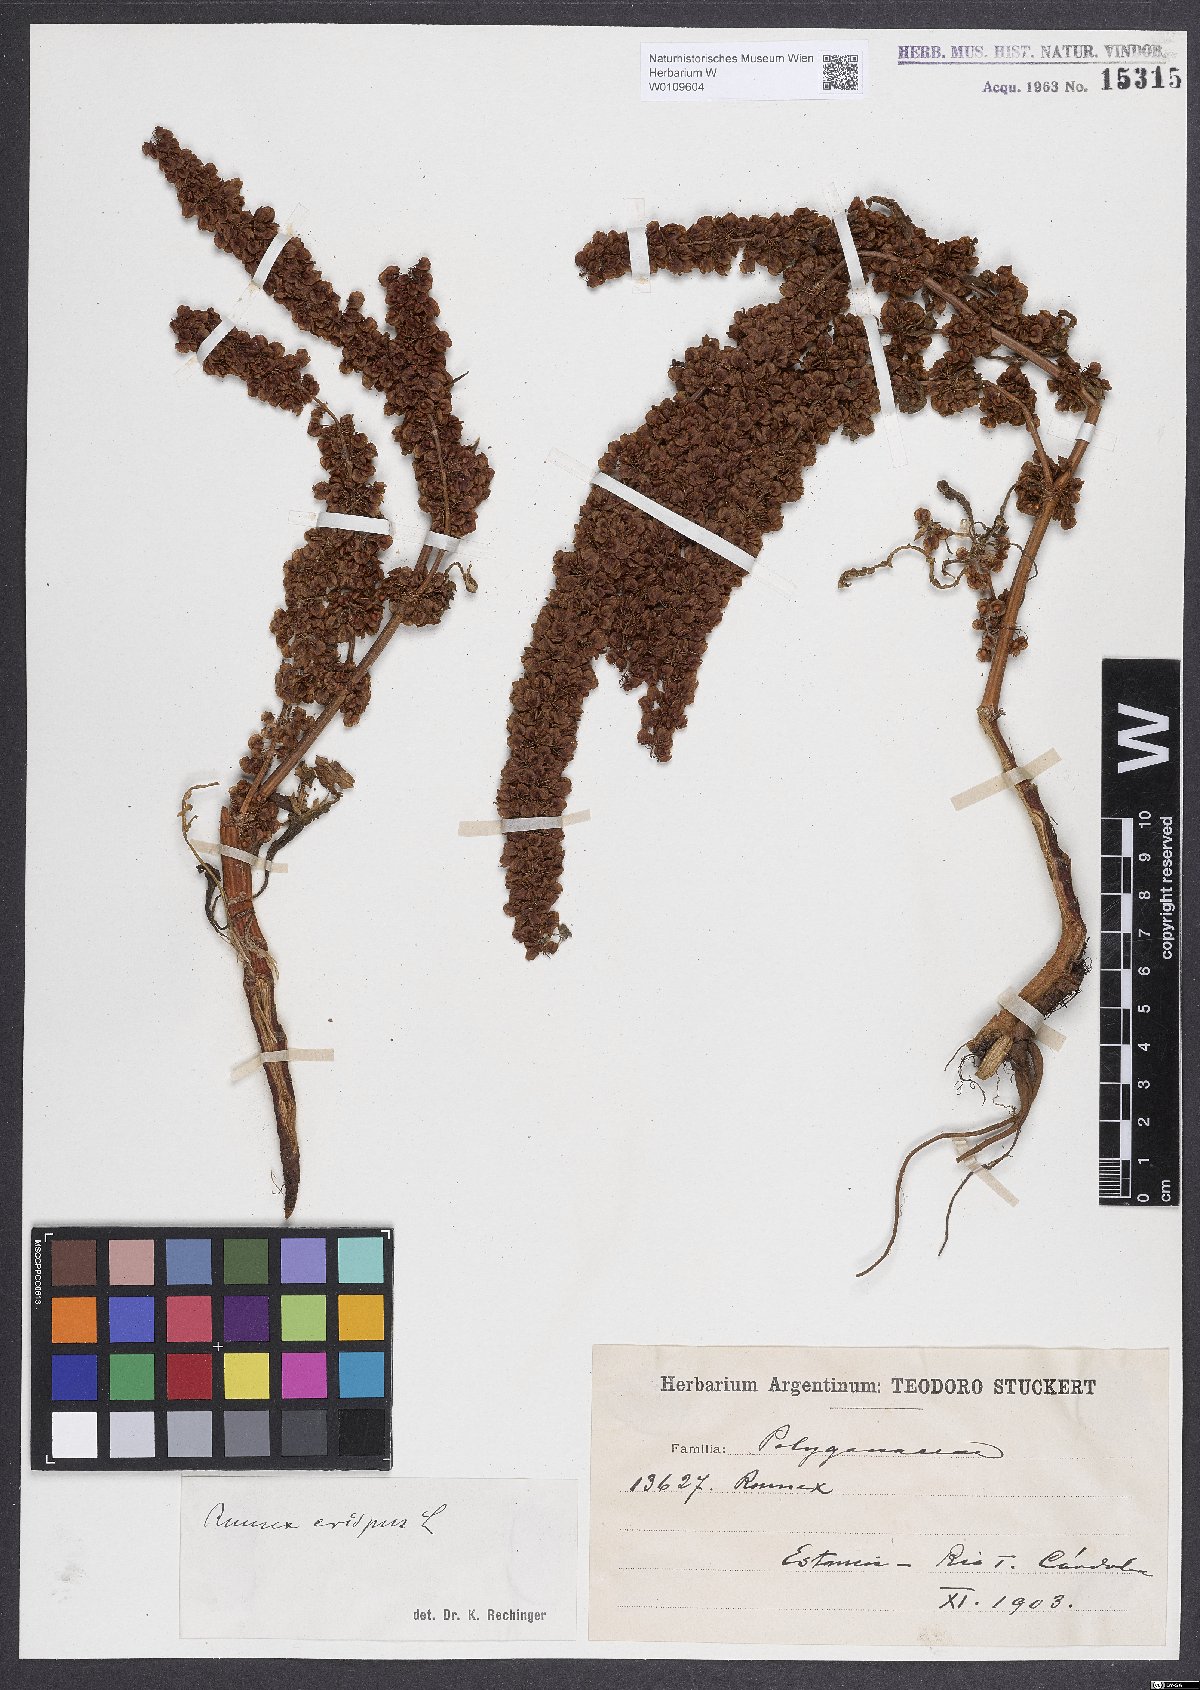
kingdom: Plantae
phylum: Tracheophyta
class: Magnoliopsida
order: Caryophyllales
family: Polygonaceae
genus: Rumex
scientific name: Rumex crispus
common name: Curled dock
